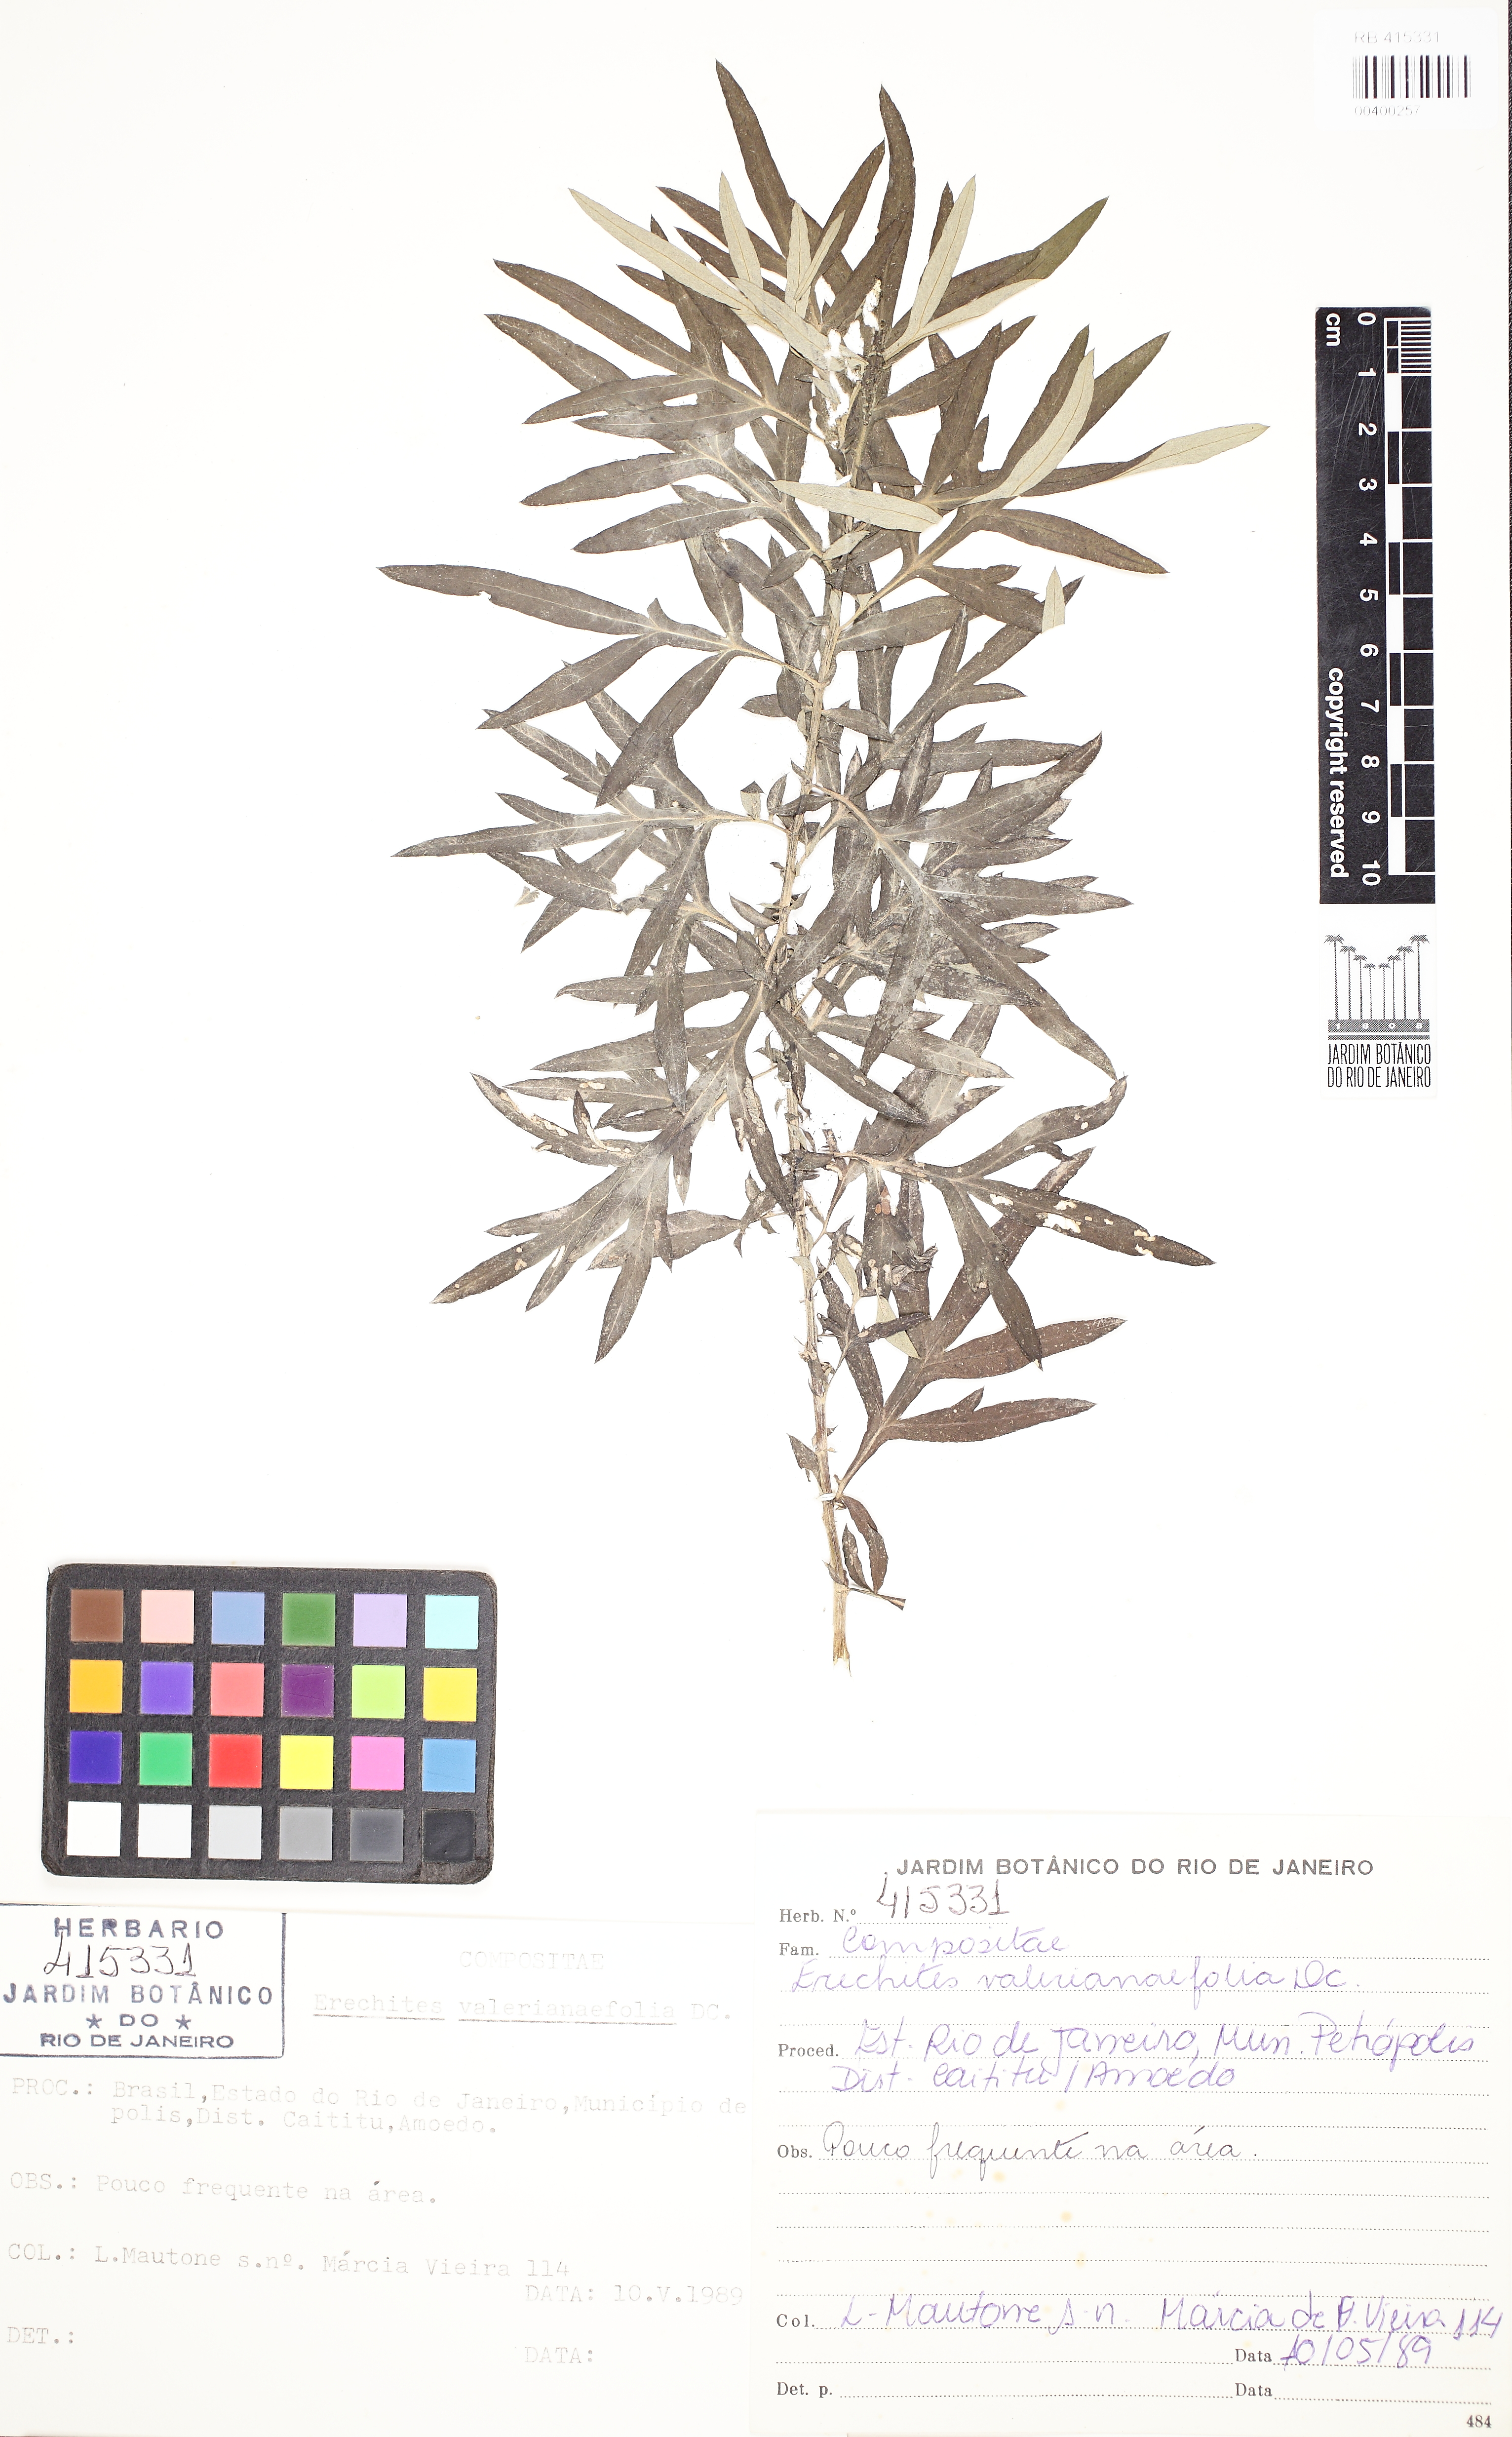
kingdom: Plantae
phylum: Tracheophyta
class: Magnoliopsida
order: Asterales
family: Asteraceae
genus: Erechtites
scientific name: Erechtites valerianifolius
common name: Tropical burnweed
